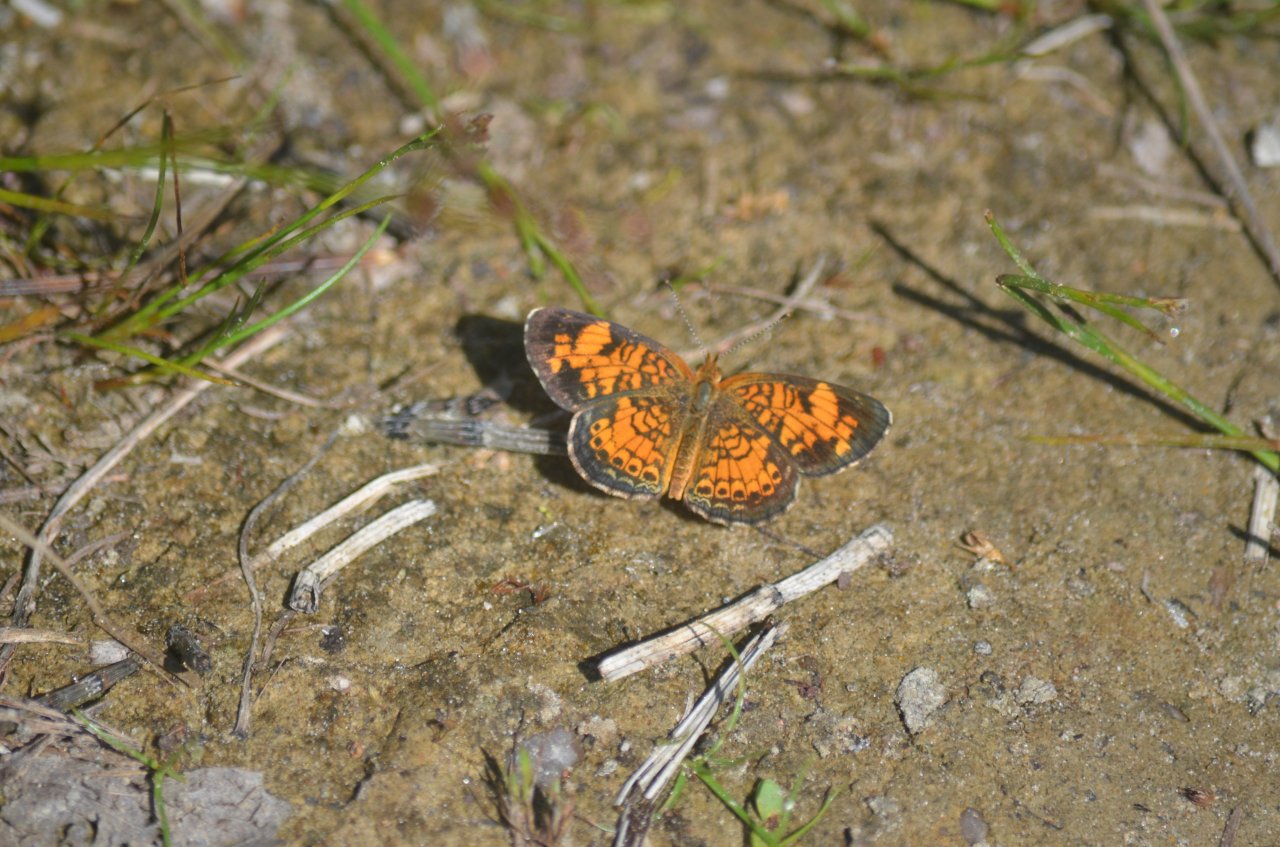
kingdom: Animalia
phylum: Arthropoda
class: Insecta
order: Lepidoptera
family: Nymphalidae
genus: Phyciodes
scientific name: Phyciodes tharos
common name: Northern Crescent
